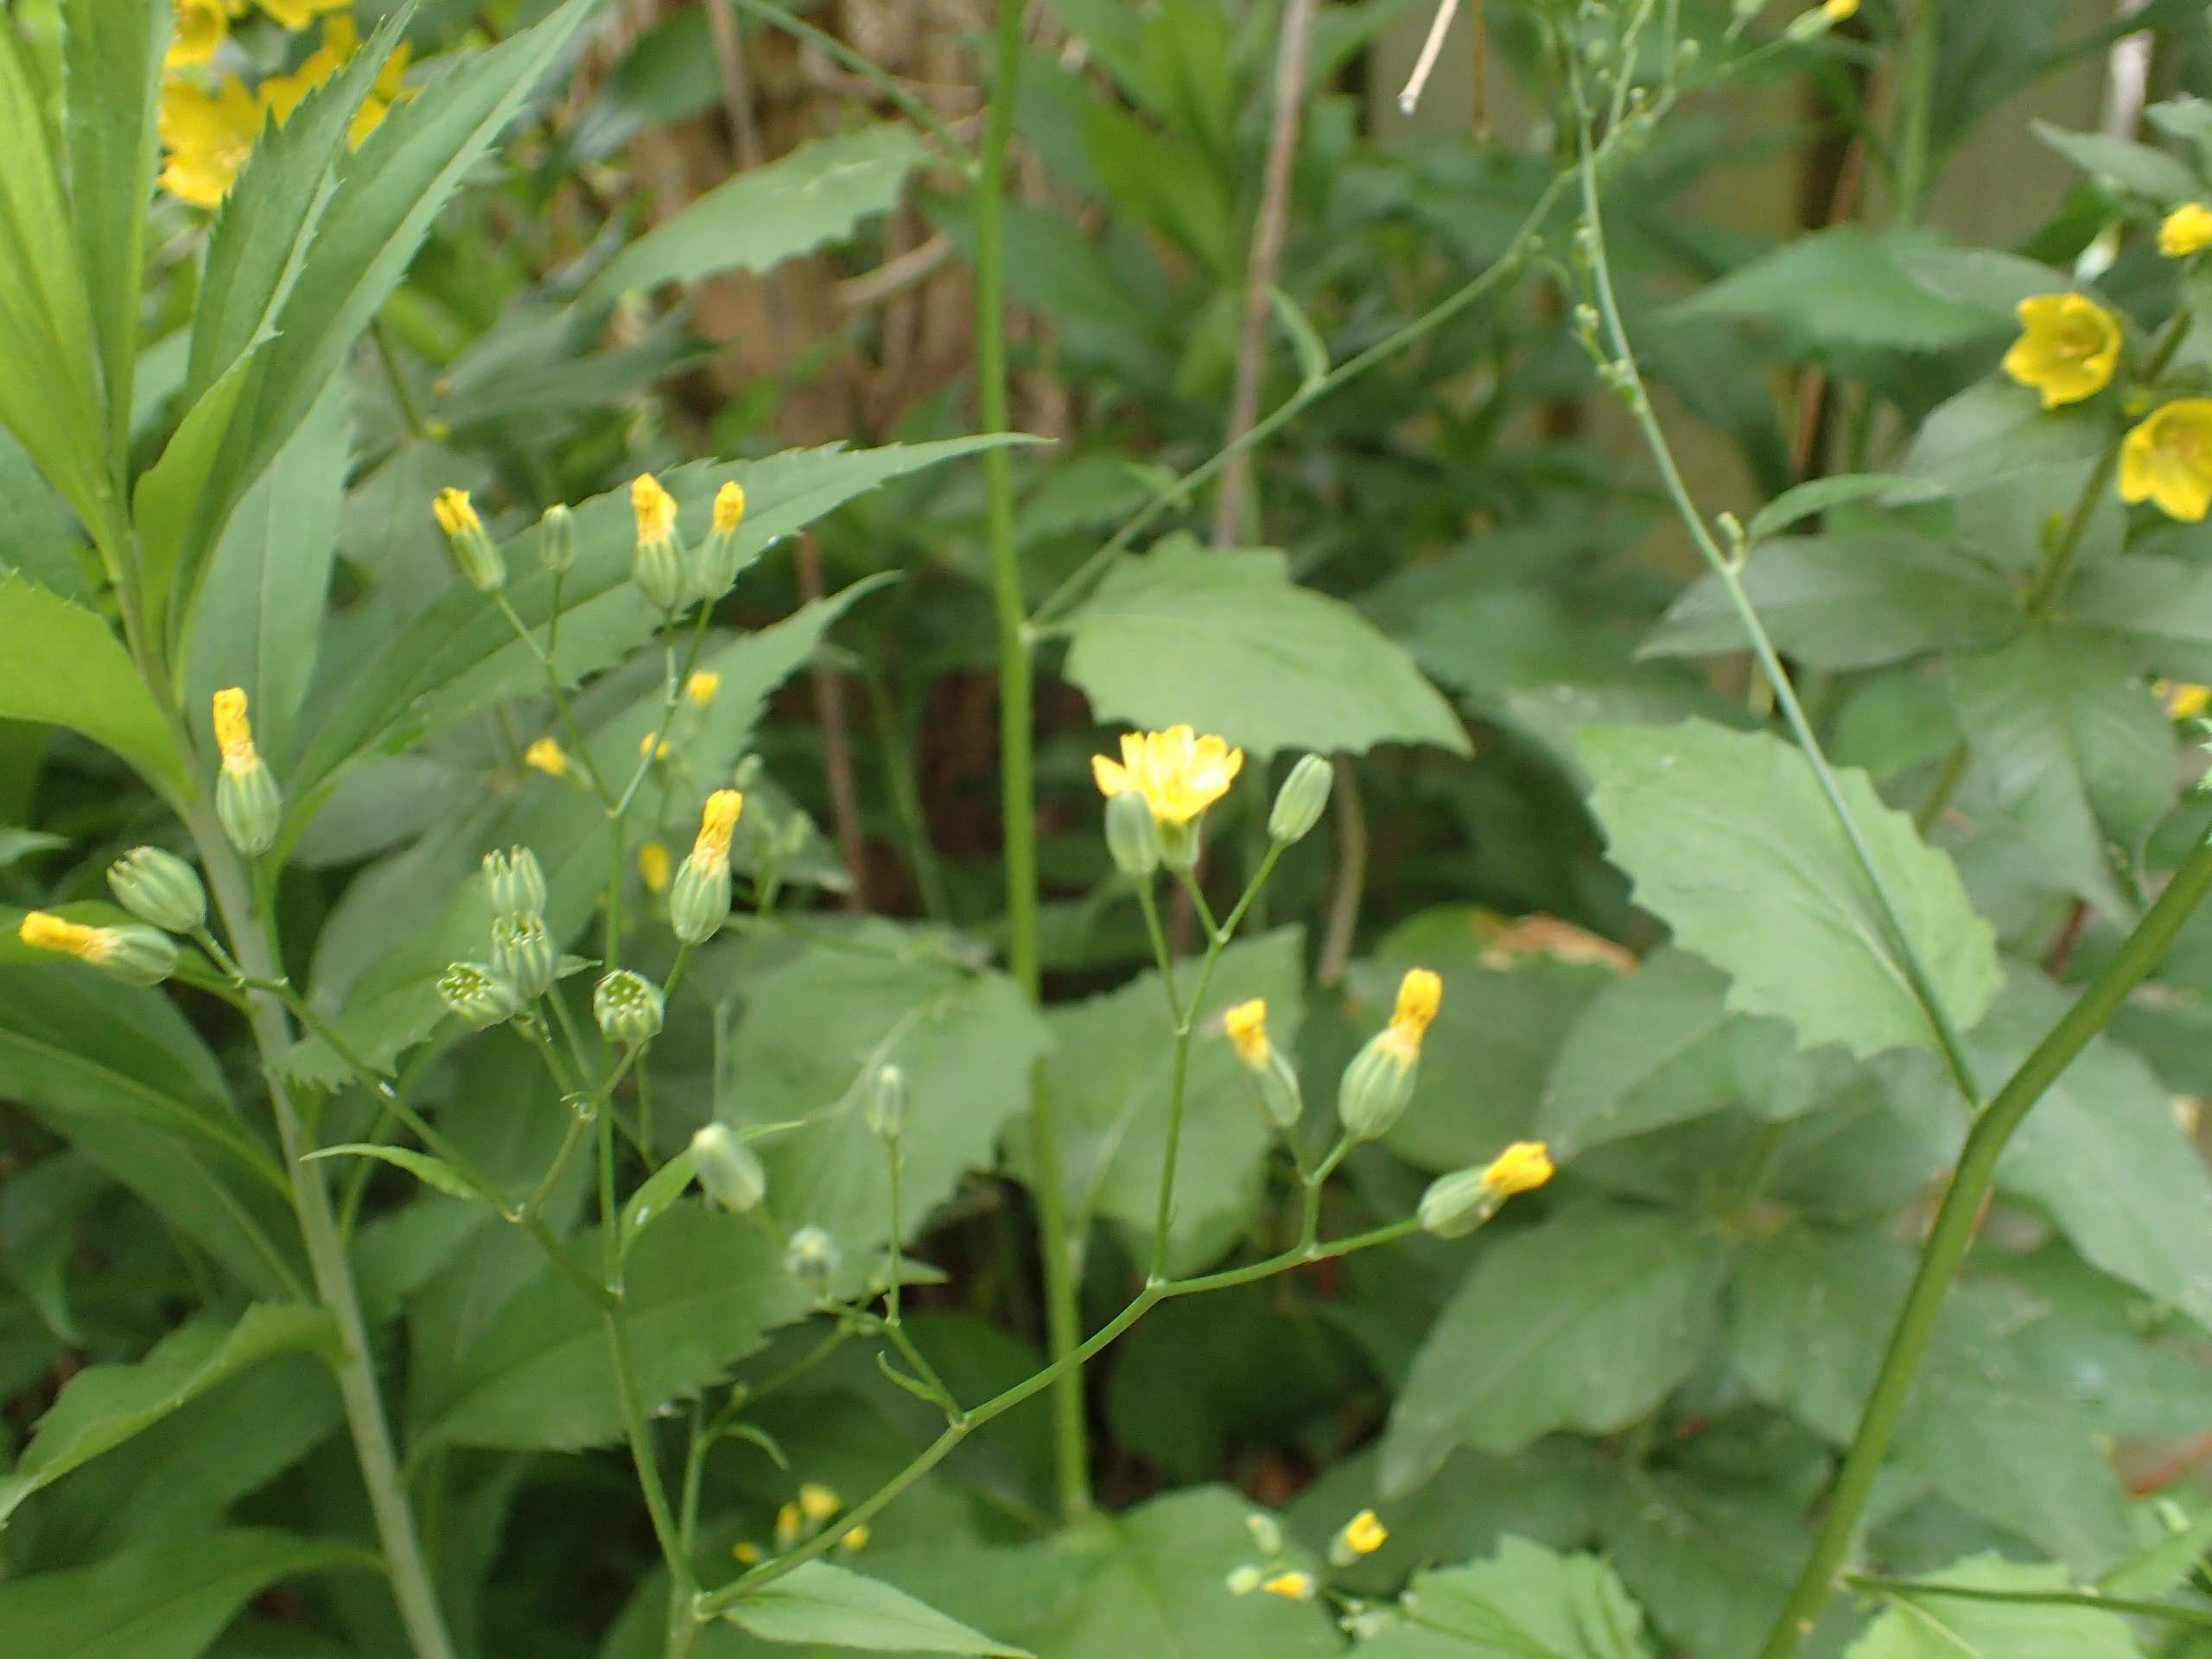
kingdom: Plantae
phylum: Tracheophyta
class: Magnoliopsida
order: Asterales
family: Asteraceae
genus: Lapsana
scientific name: Lapsana communis
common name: Haremad
